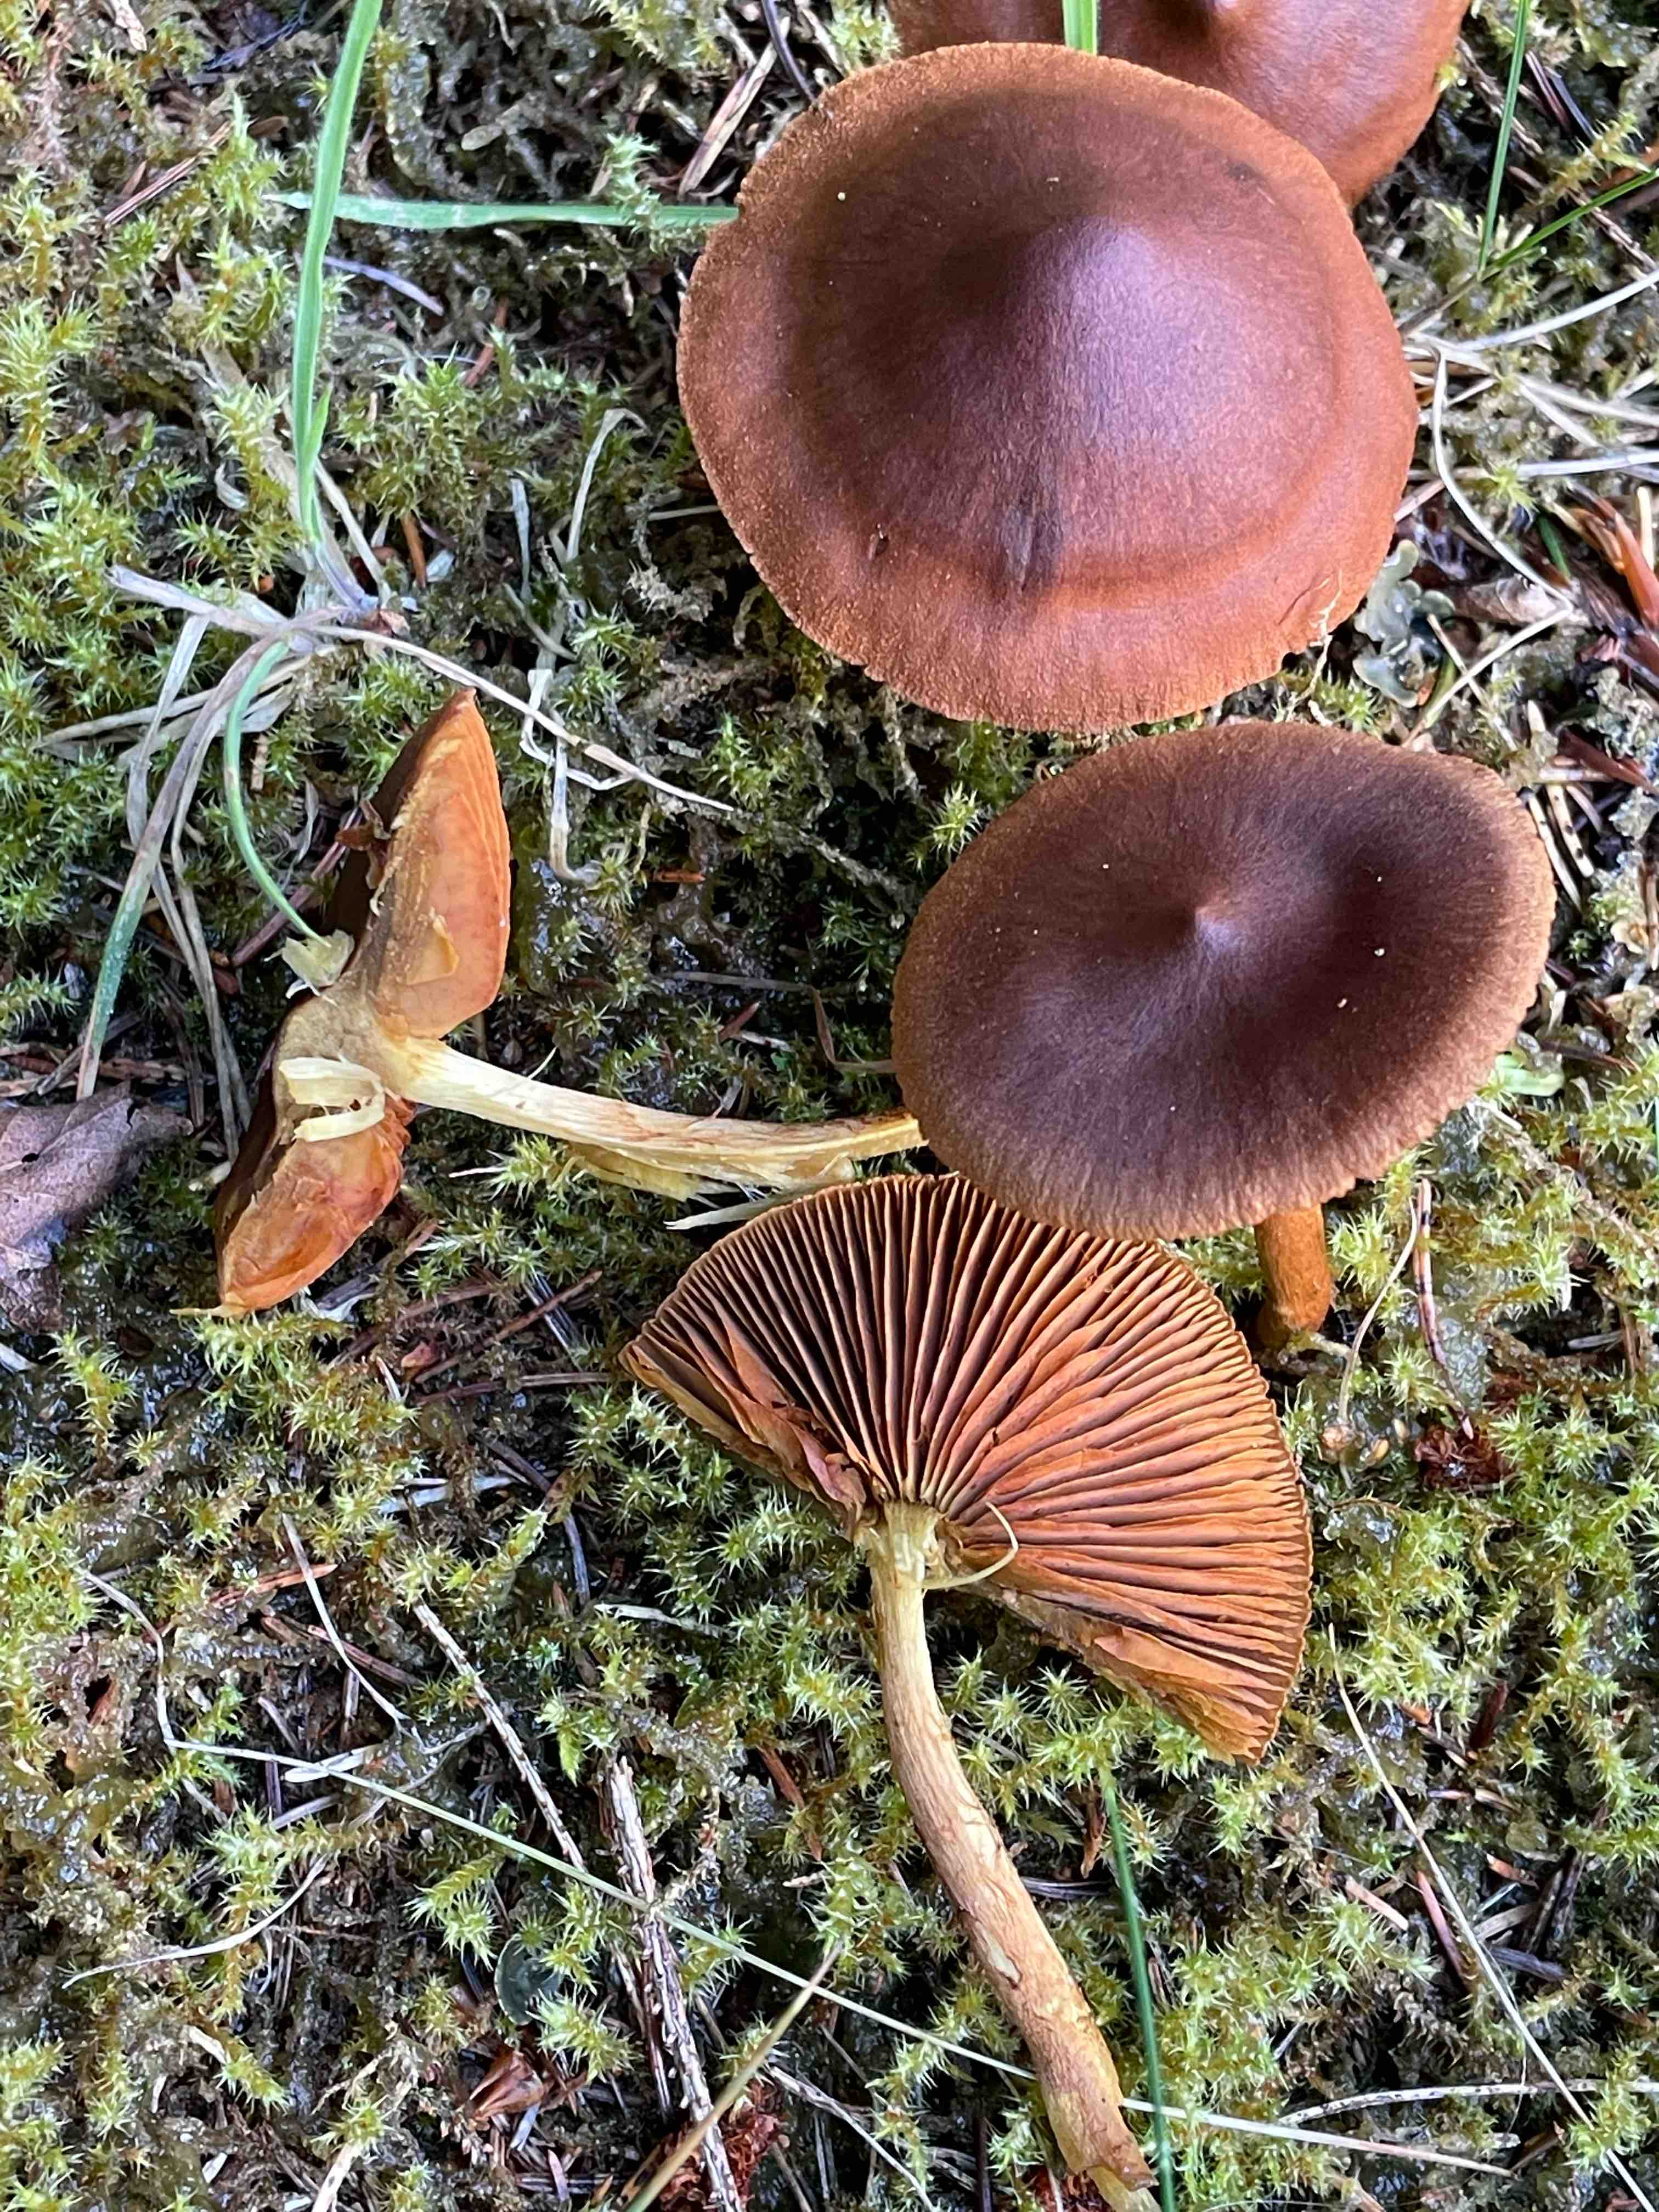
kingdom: Fungi
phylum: Basidiomycota
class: Agaricomycetes
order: Agaricales
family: Cortinariaceae
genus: Cortinarius
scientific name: Cortinarius
